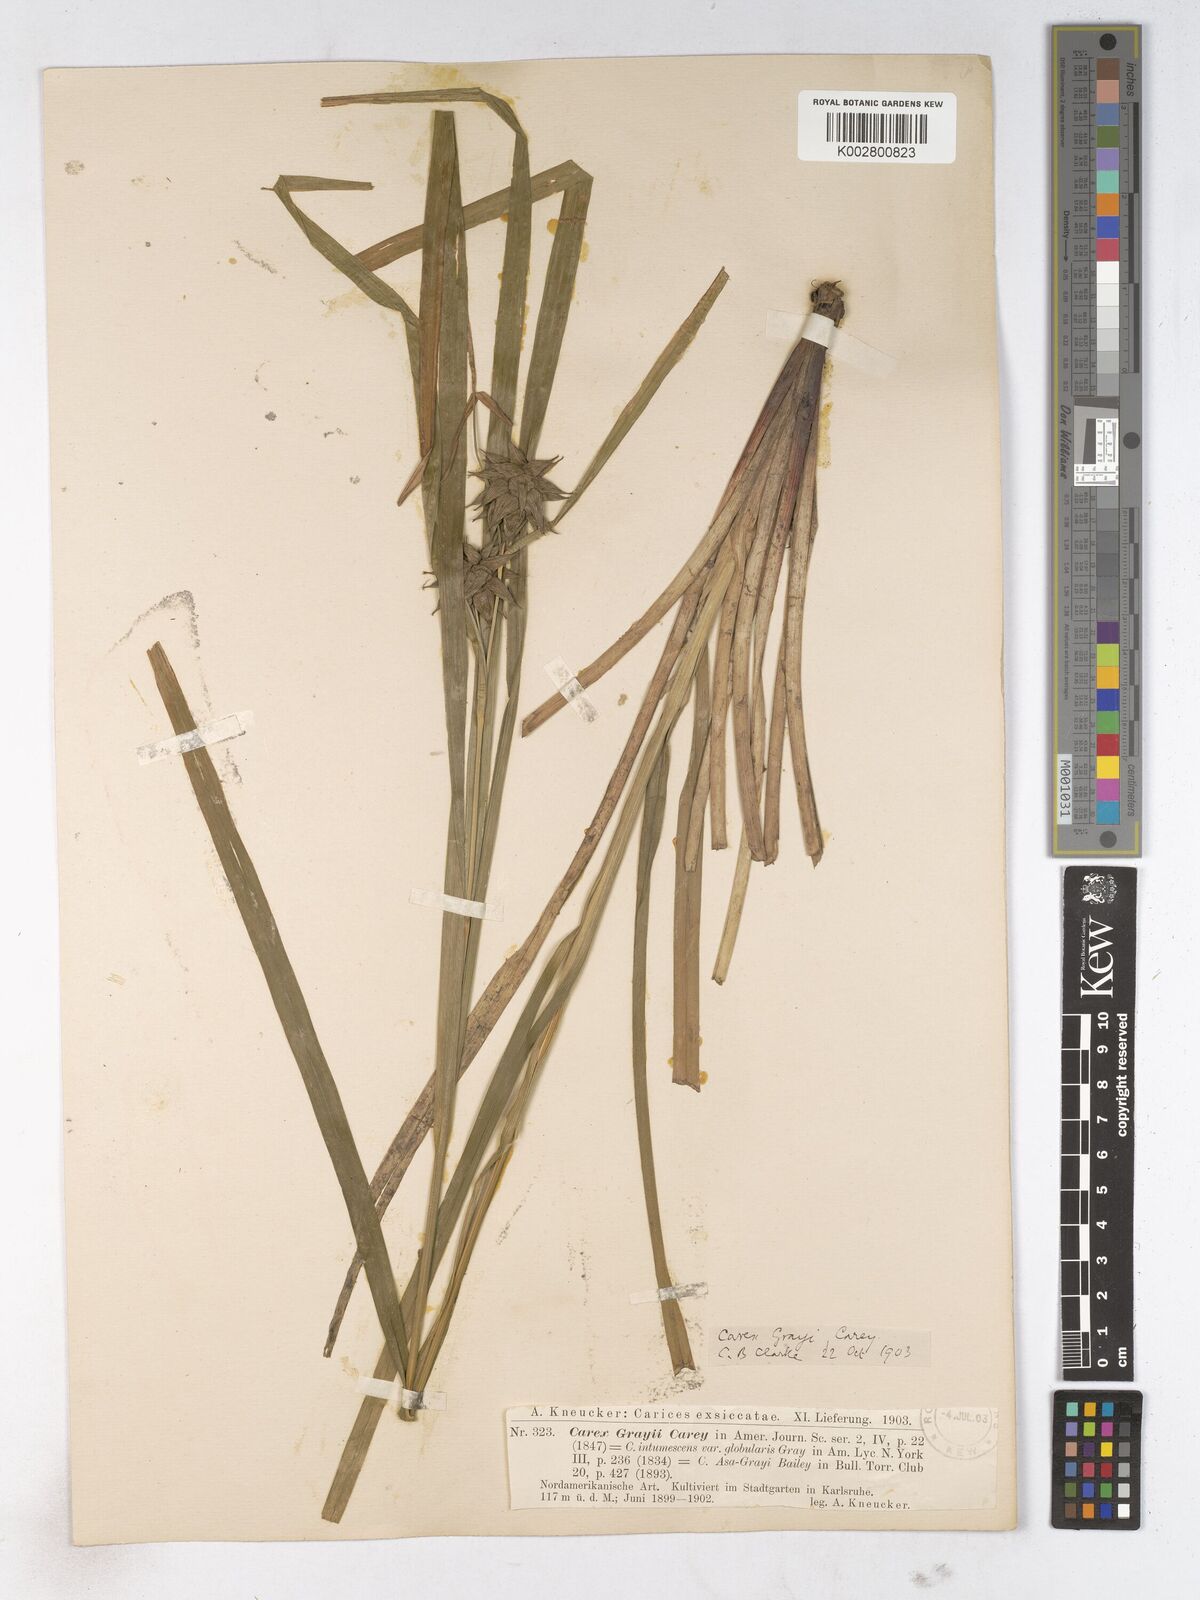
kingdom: Plantae
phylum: Tracheophyta
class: Liliopsida
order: Poales
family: Cyperaceae
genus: Carex
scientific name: Carex grayi
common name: Asa gray's sedge
